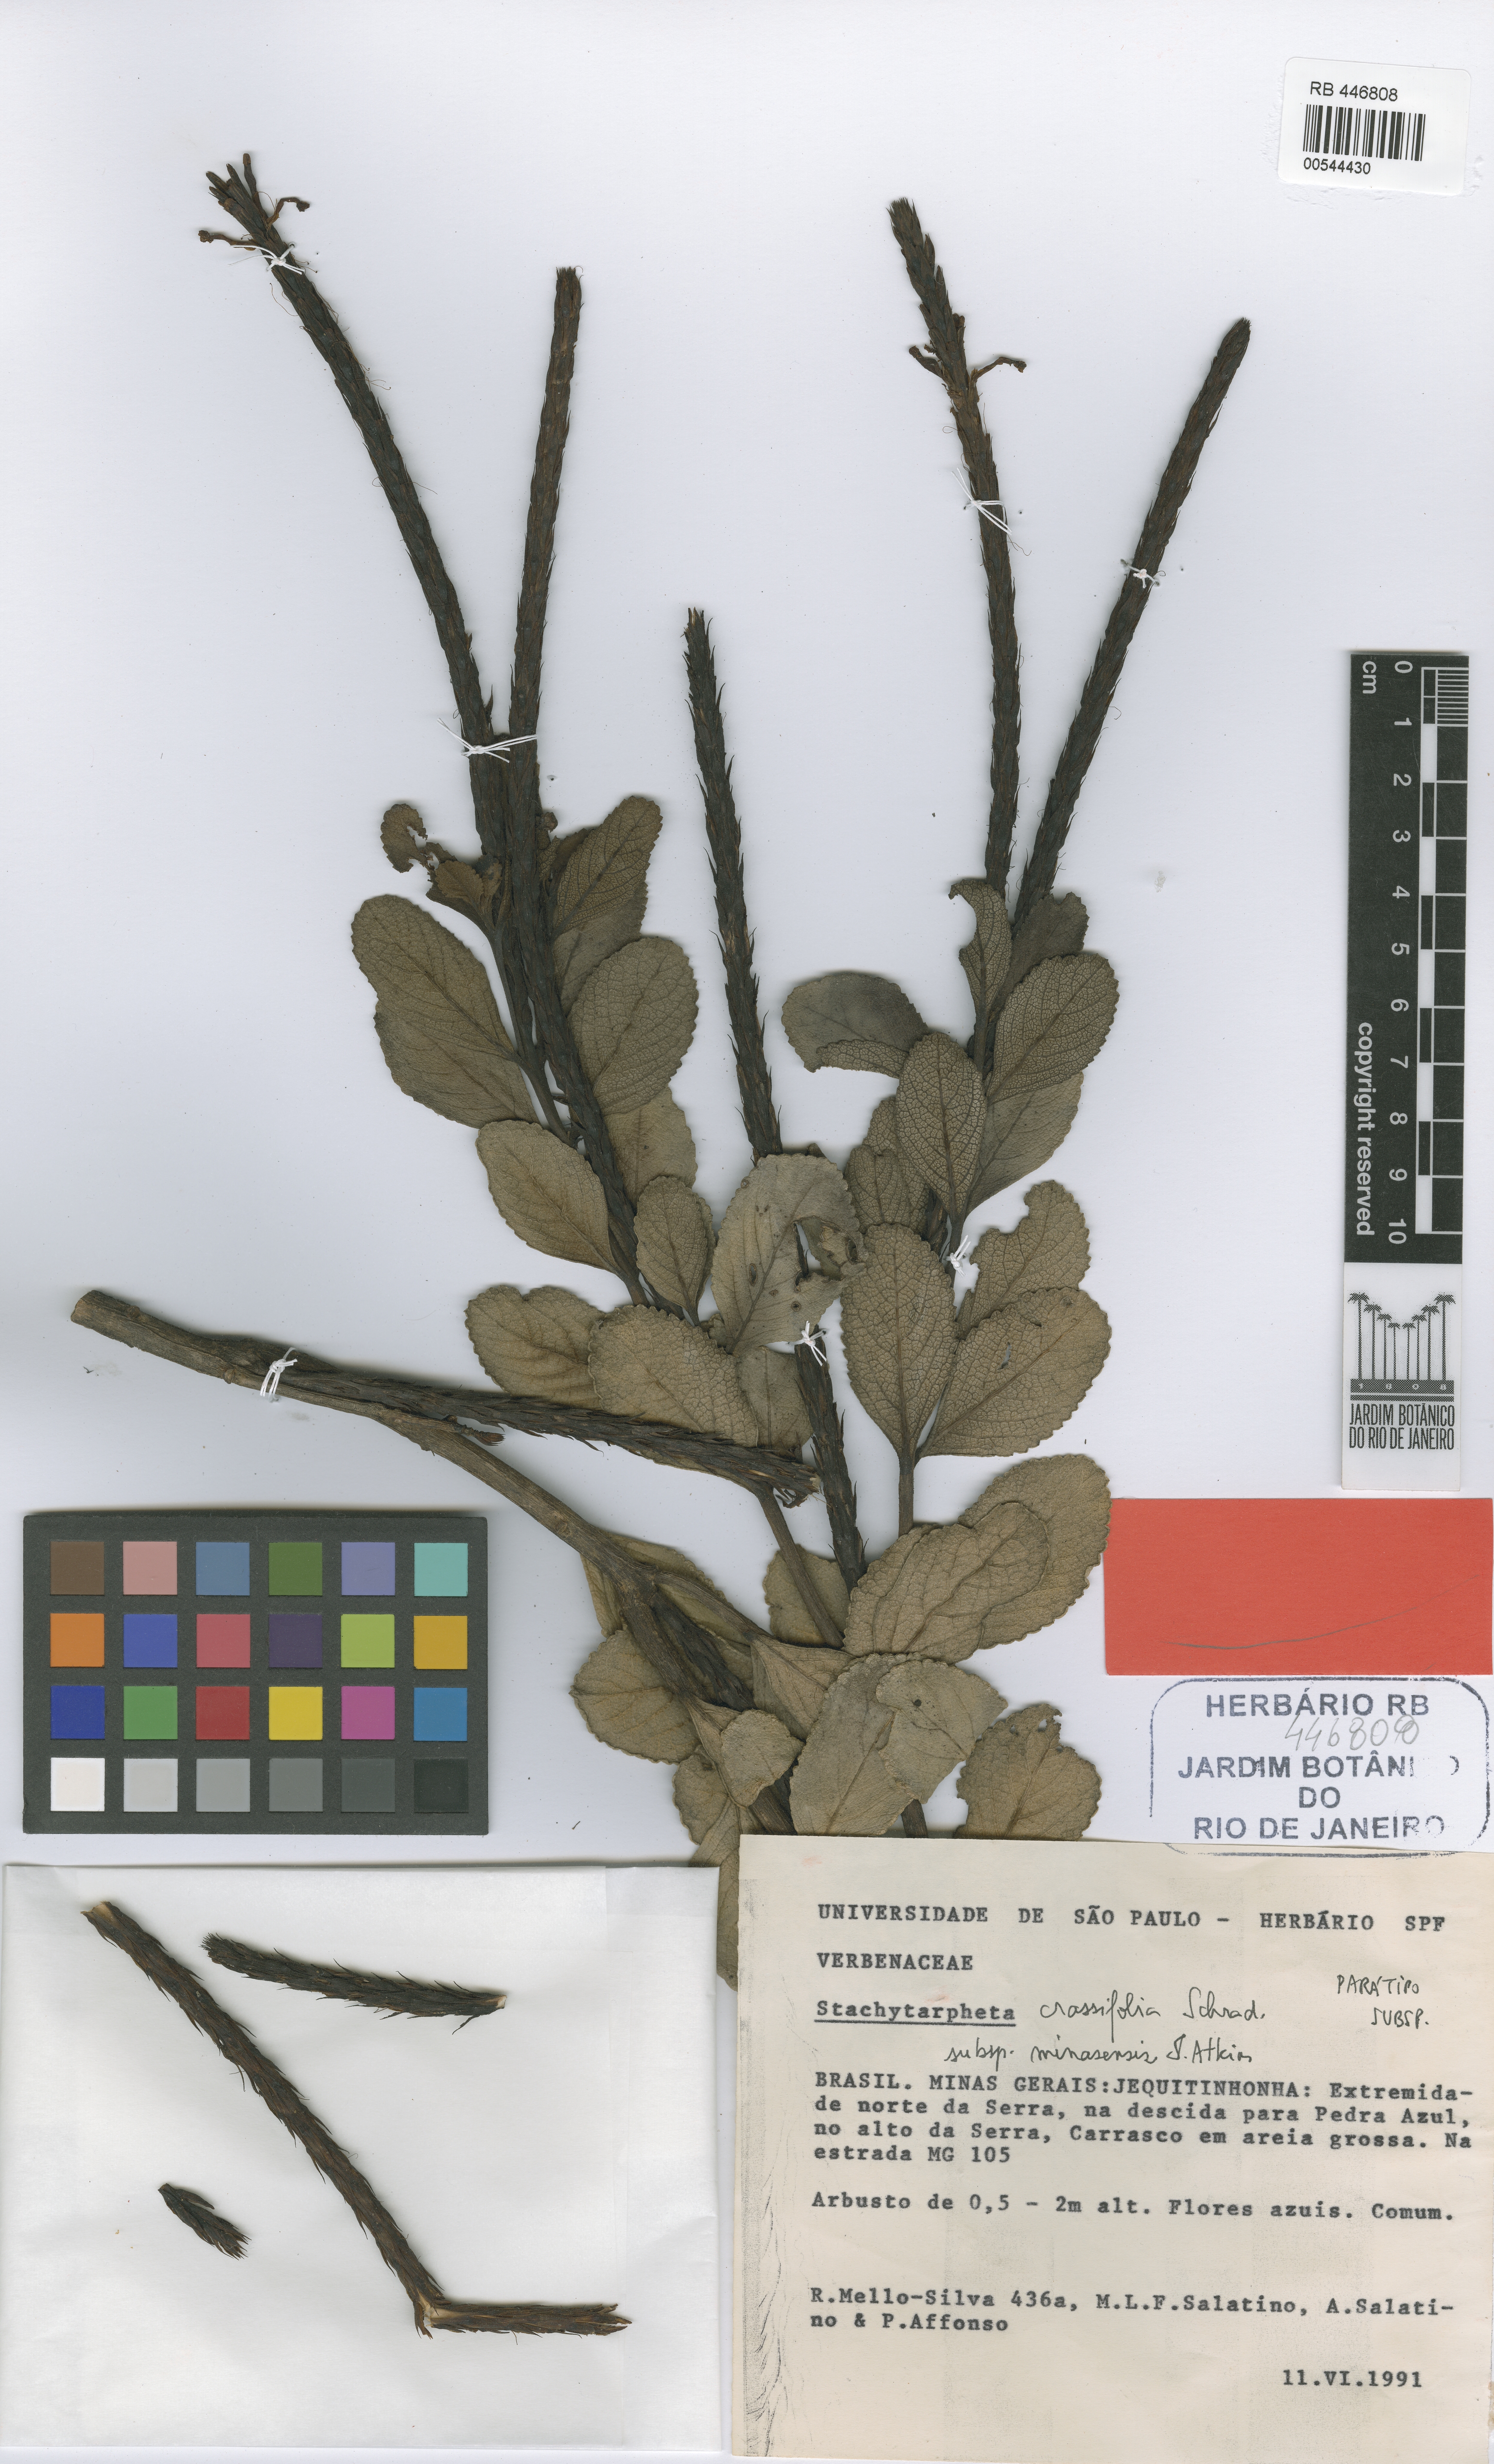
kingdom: Plantae
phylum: Tracheophyta
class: Magnoliopsida
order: Lamiales
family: Verbenaceae
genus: Stachytarpheta
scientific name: Stachytarpheta crassifolia
